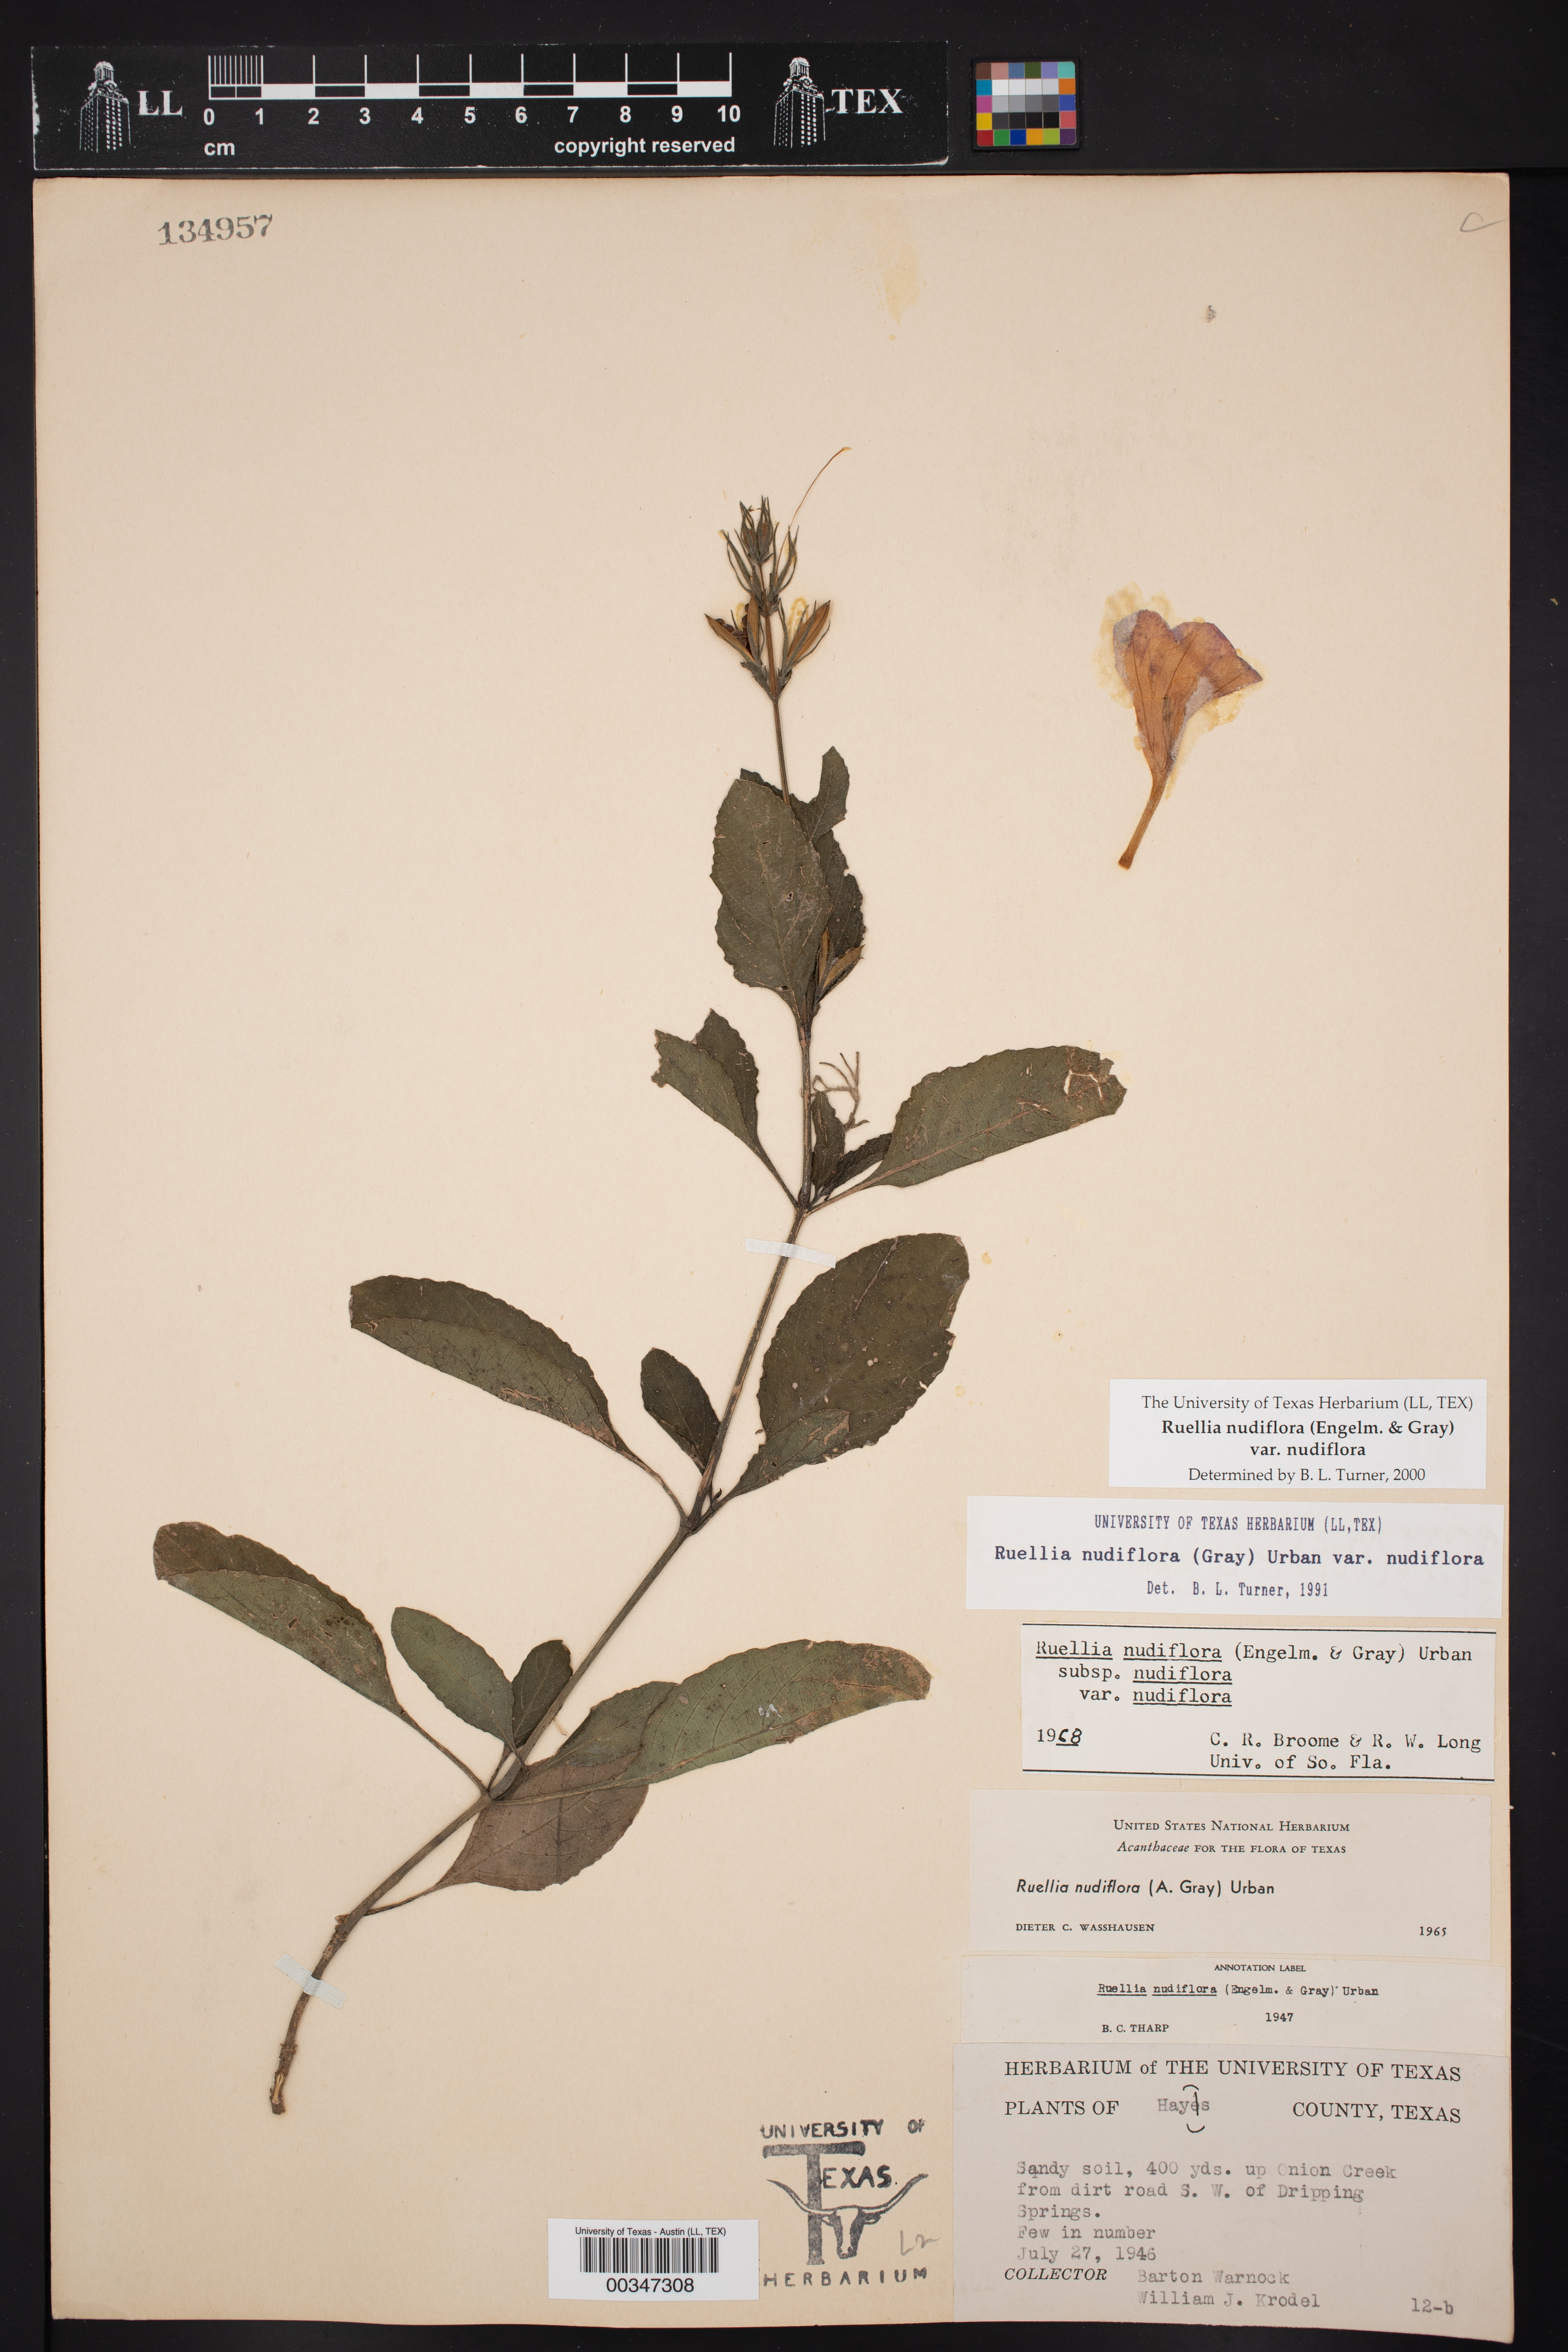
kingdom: Plantae
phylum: Tracheophyta
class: Magnoliopsida
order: Lamiales
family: Acanthaceae
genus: Ruellia
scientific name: Ruellia ciliatiflora
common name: Hairyflower wild petunia
